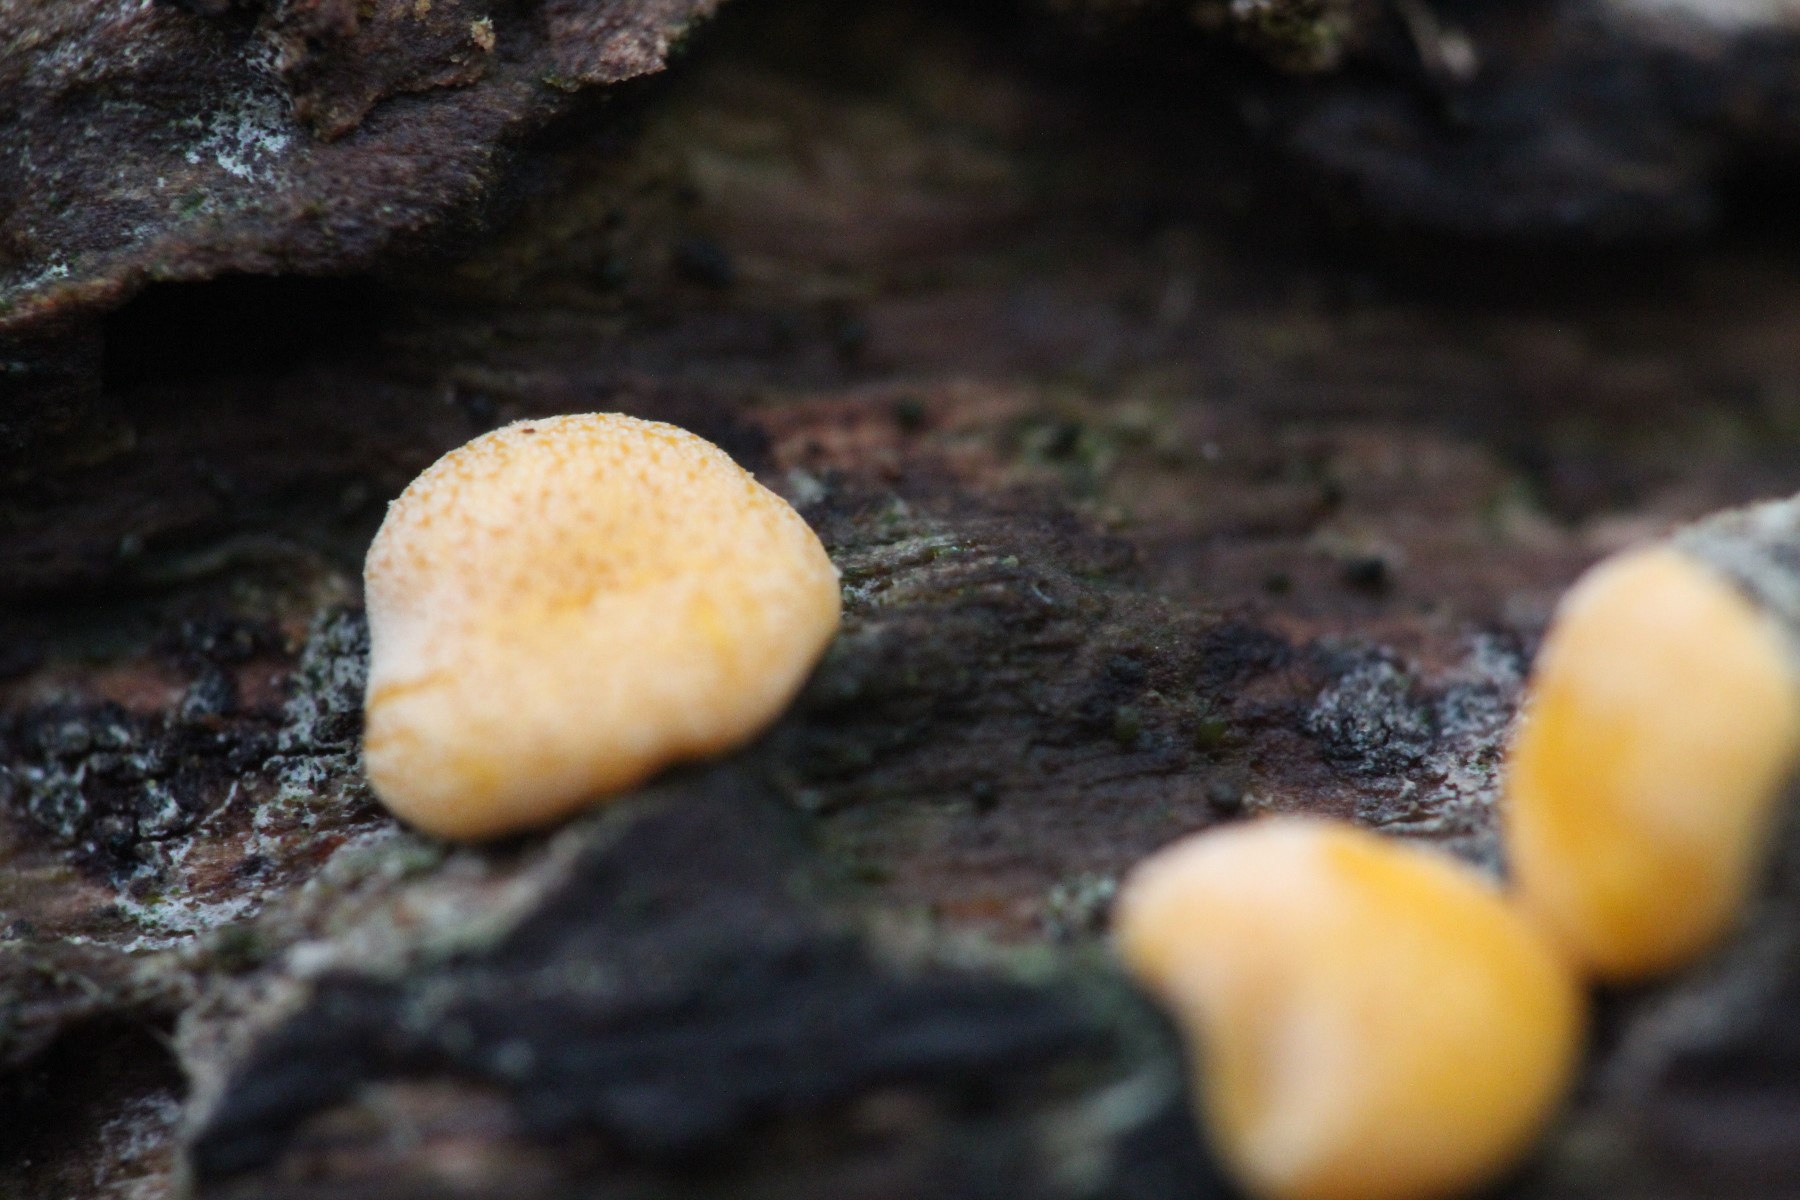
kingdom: Fungi
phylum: Ascomycota
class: Sordariomycetes
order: Hypocreales
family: Hypocreaceae
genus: Trichoderma
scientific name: Trichoderma aureoviride
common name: æggegul kødkerne
